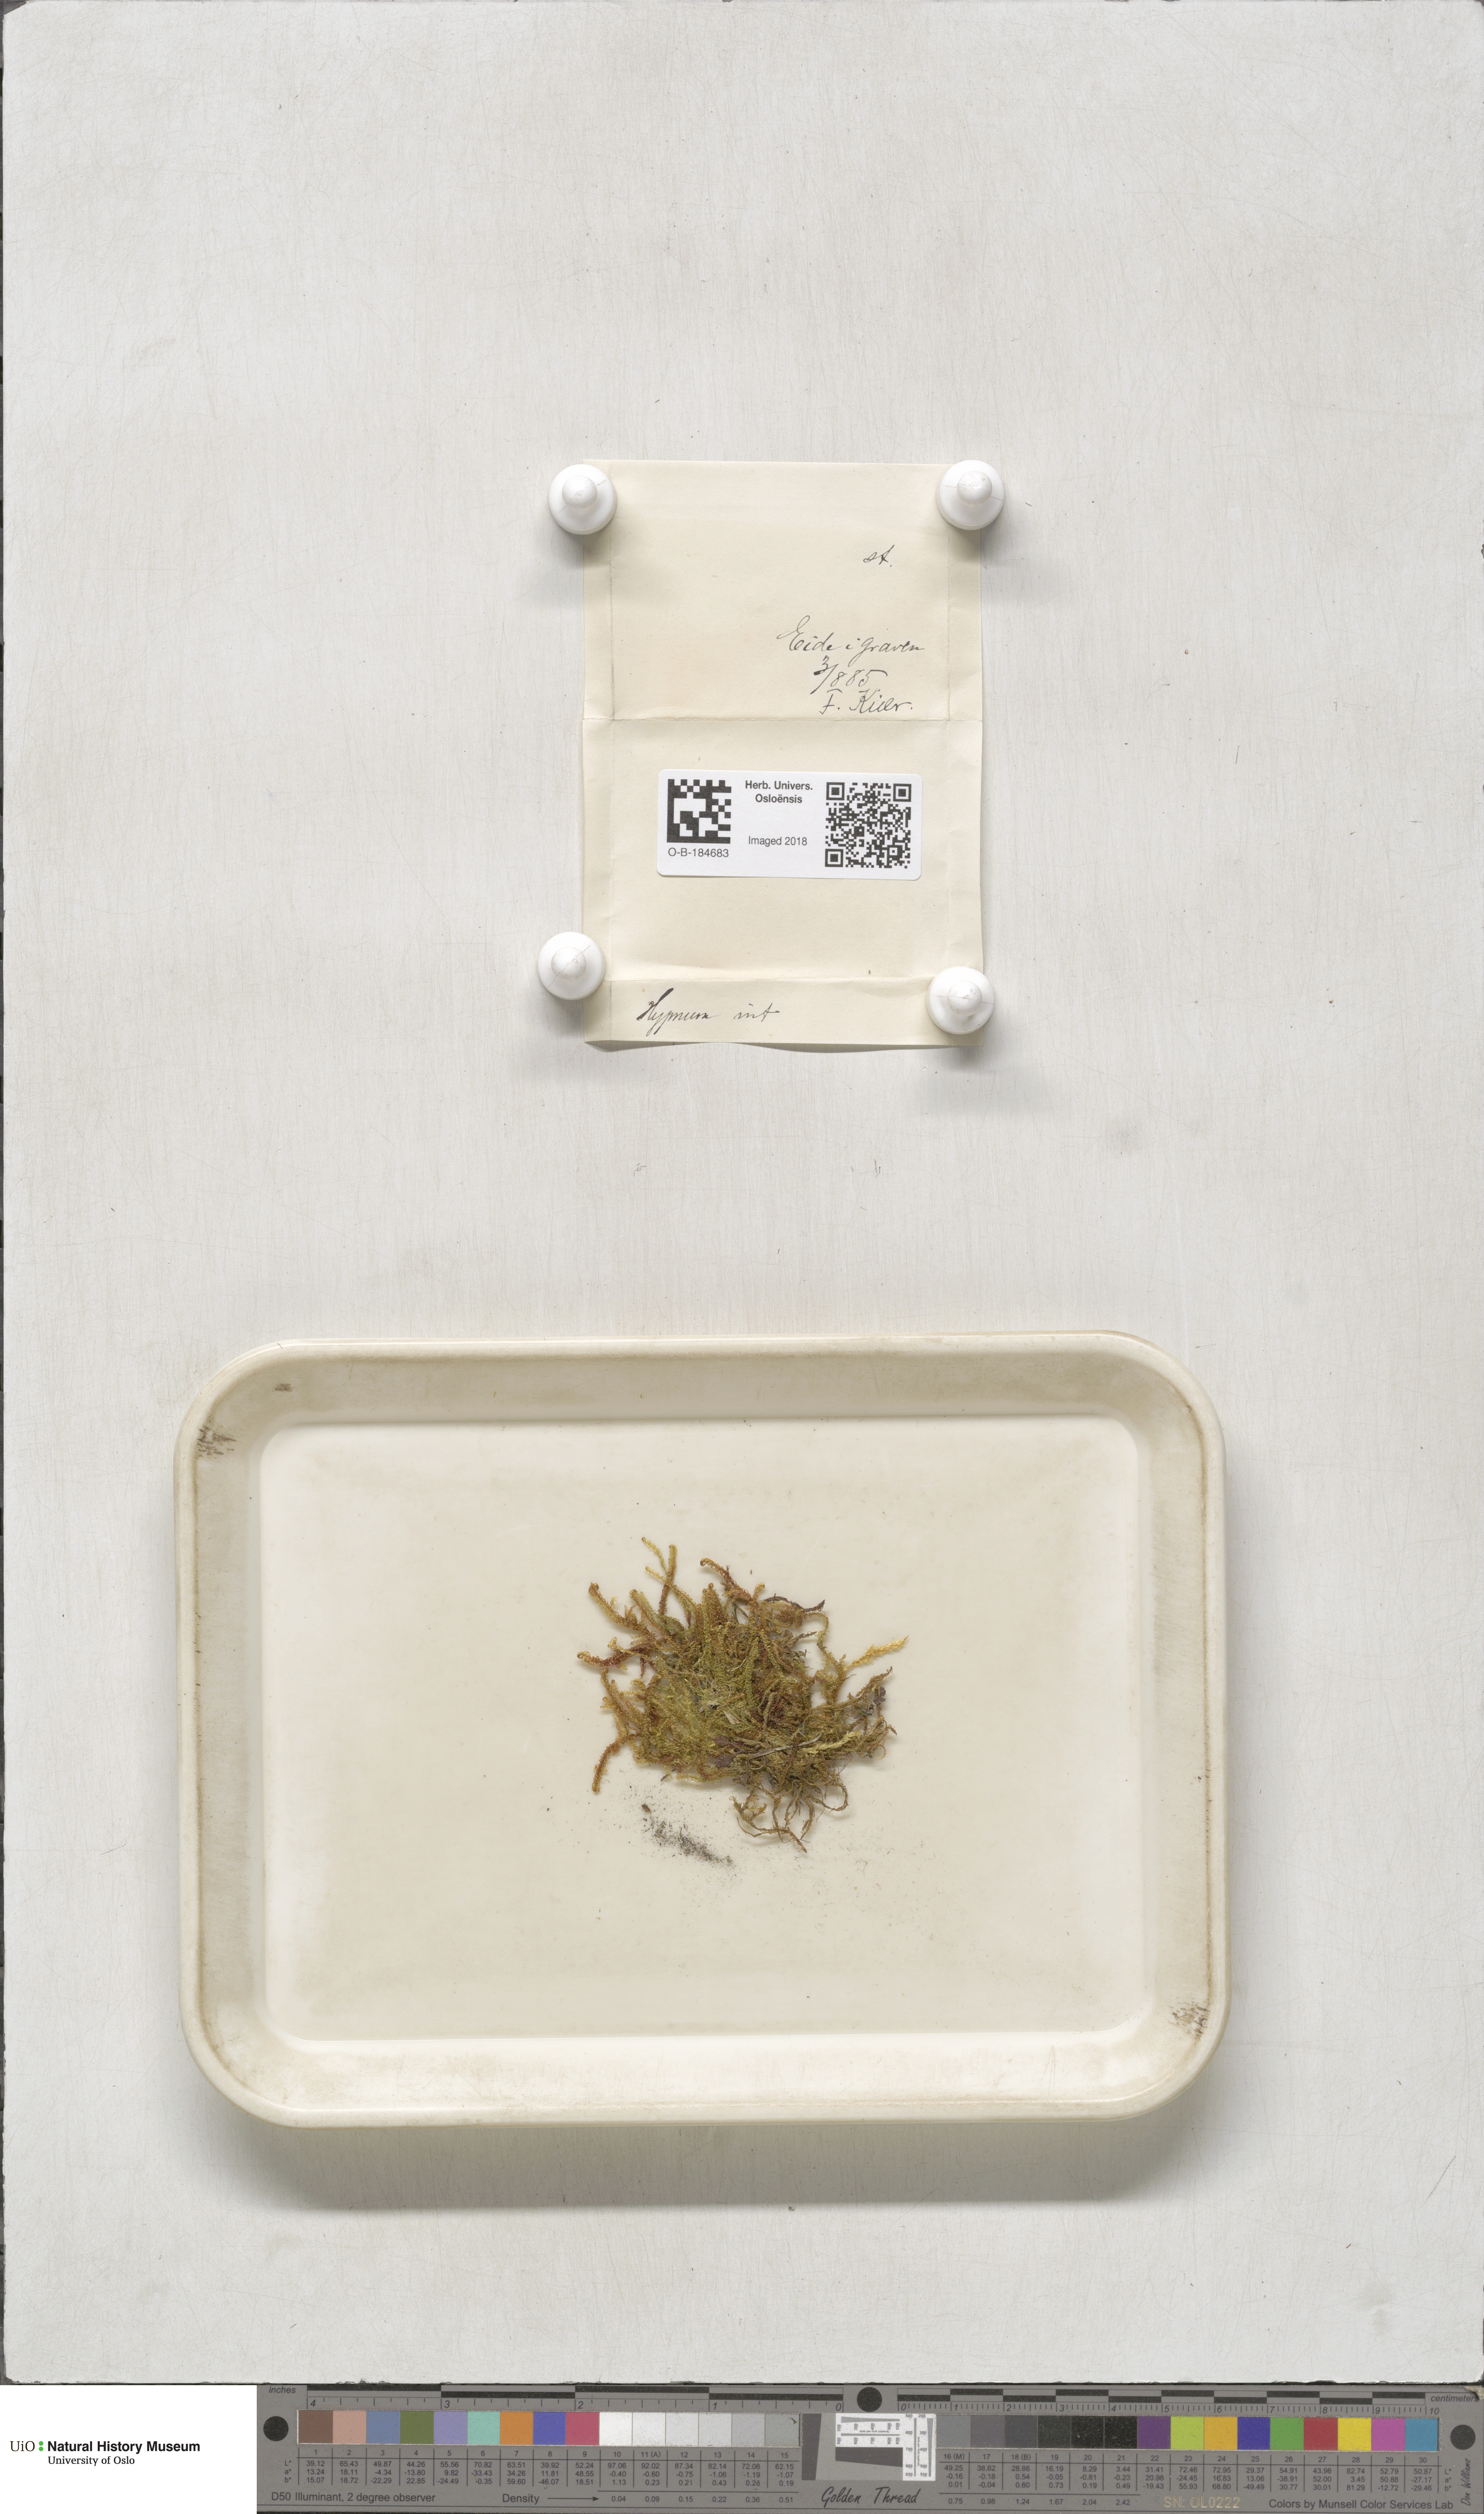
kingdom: Plantae
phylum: Bryophyta
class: Bryopsida
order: Hypnales
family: Scorpidiaceae
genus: Scorpidium
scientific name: Scorpidium cossonii
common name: Cosson's hook moss
